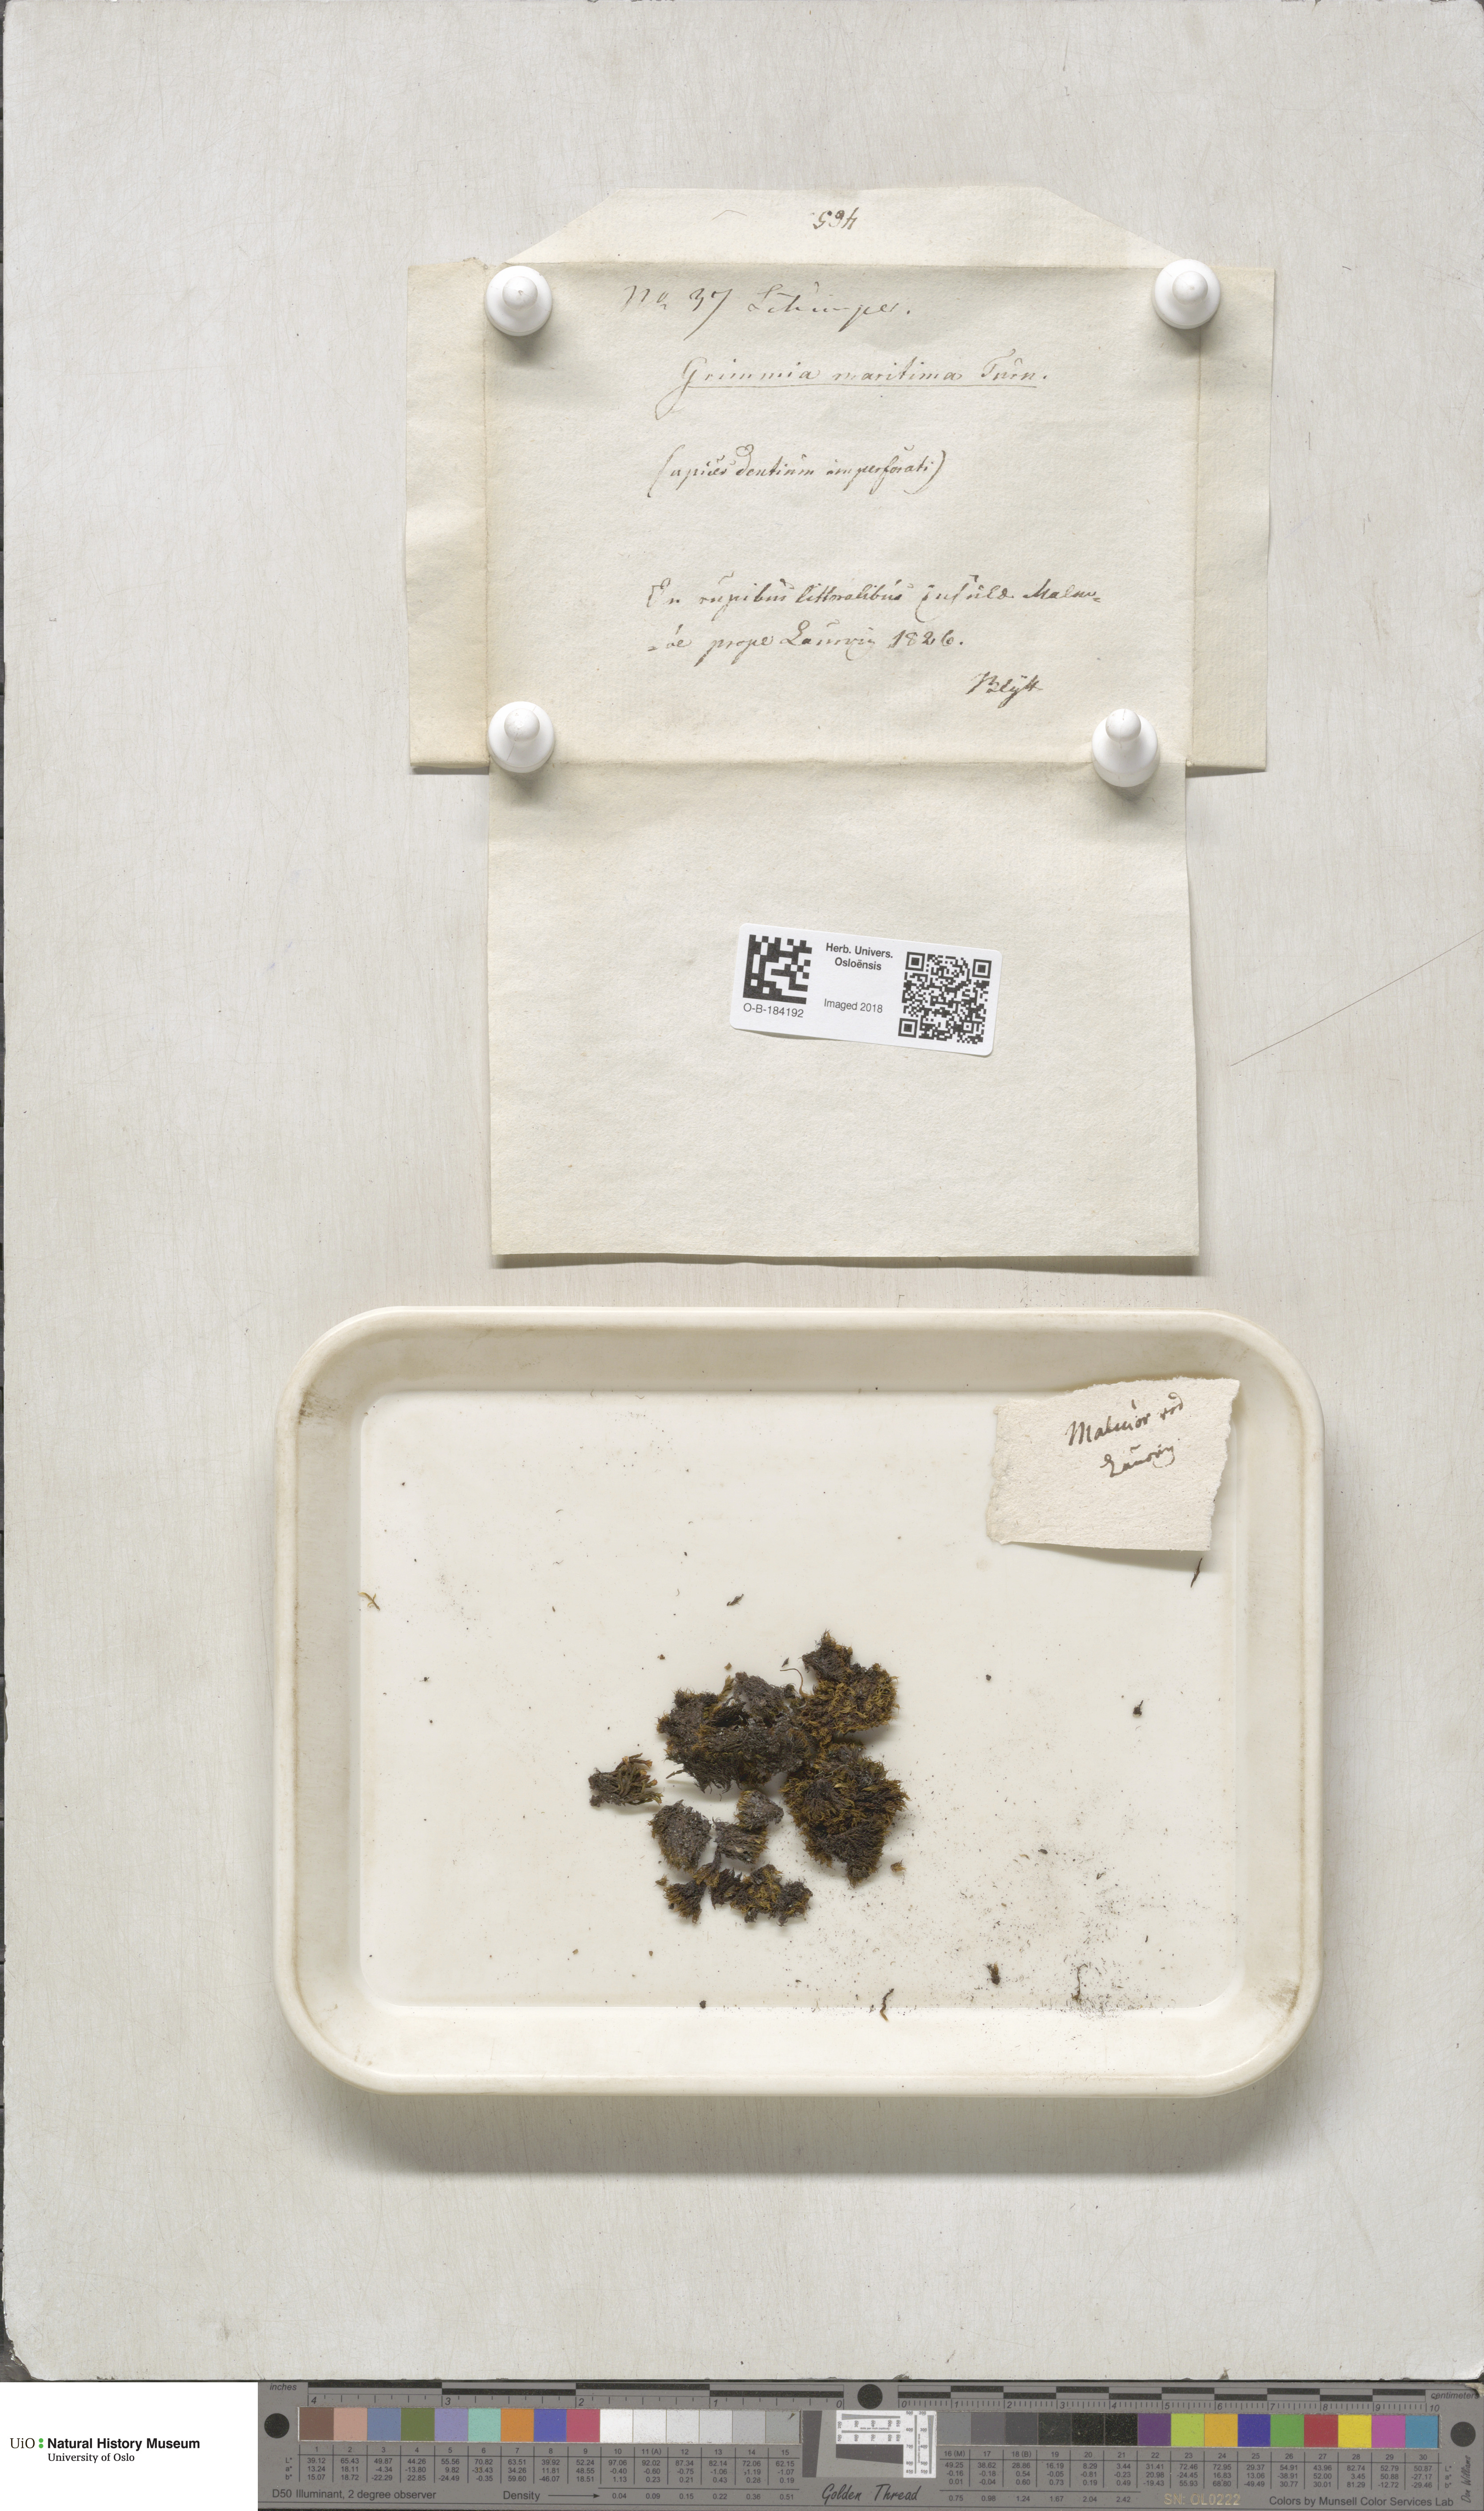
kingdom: Plantae
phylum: Bryophyta
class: Bryopsida
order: Grimmiales
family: Grimmiaceae
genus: Schistidium
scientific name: Schistidium maritimum
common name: Seaside bloom moss
